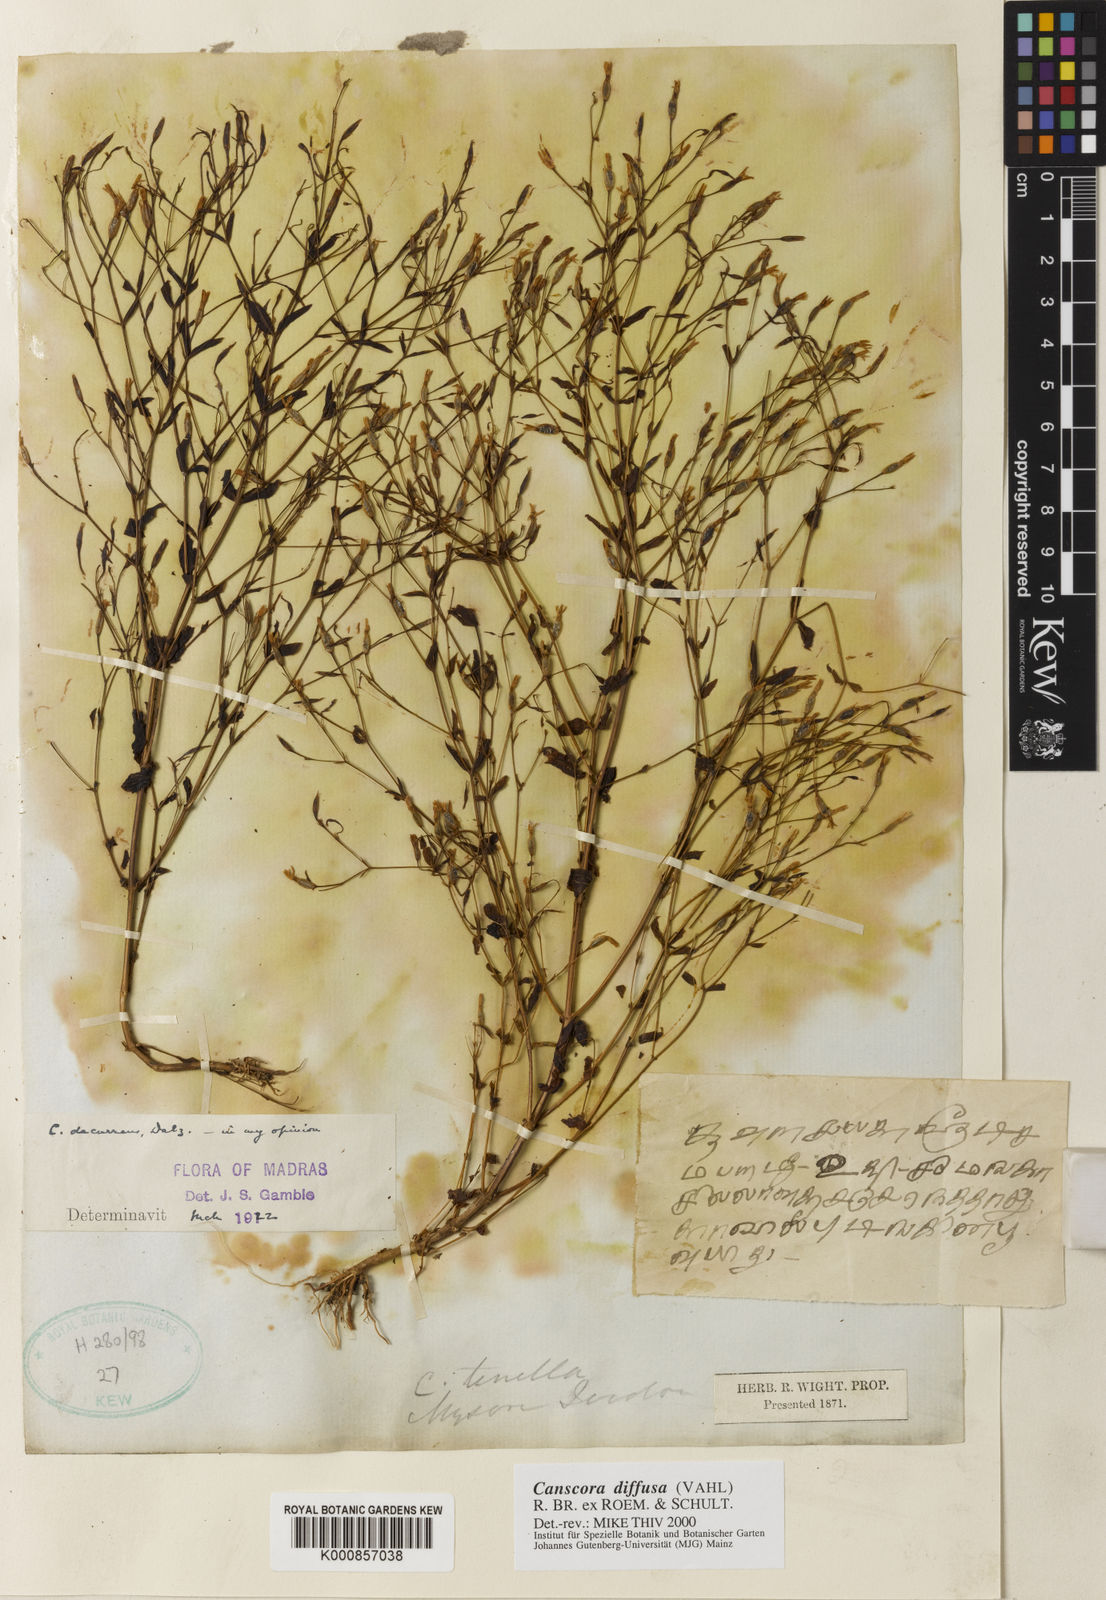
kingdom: Plantae
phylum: Tracheophyta
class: Magnoliopsida
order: Gentianales
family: Gentianaceae
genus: Canscora
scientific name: Canscora diffusa
